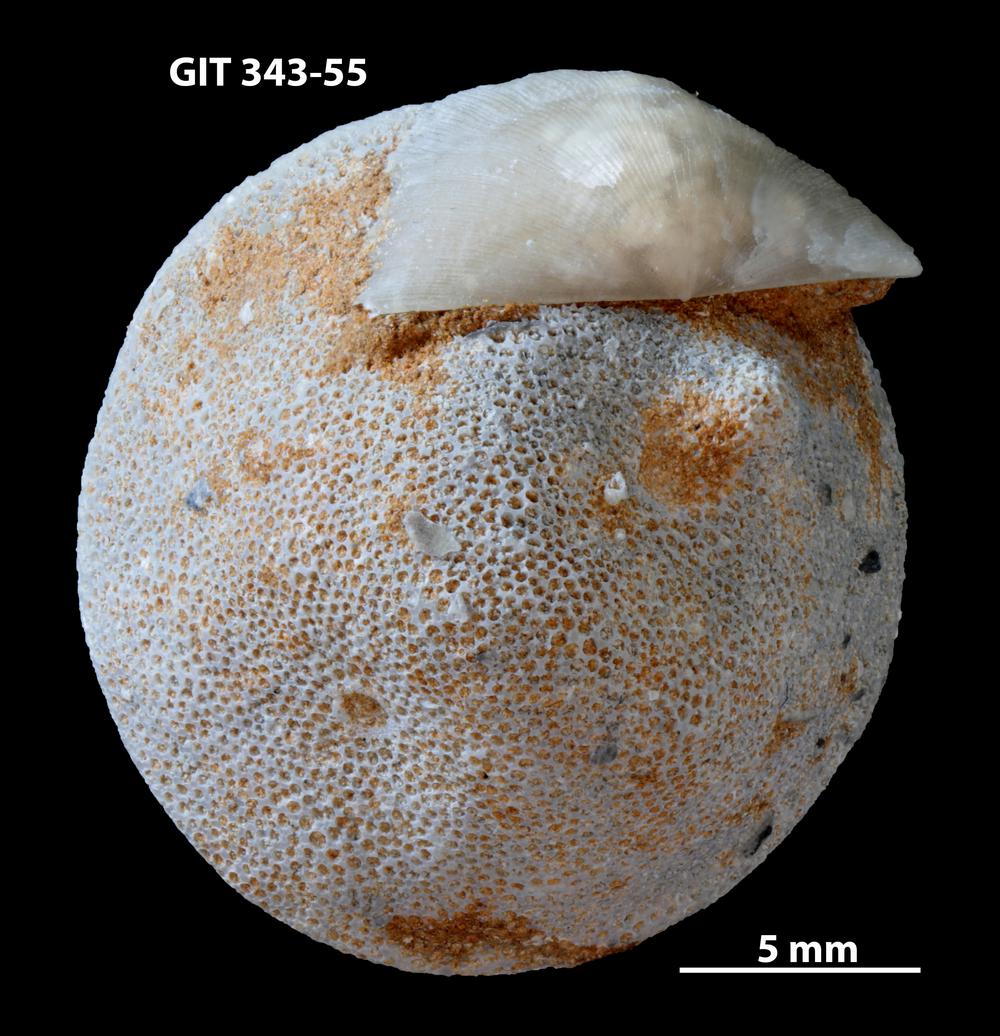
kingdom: Animalia
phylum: Bryozoa
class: Stenolaemata
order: Trepostomatida
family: Monticuliporidae
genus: Mesotrypa
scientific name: Mesotrypa orientalis
